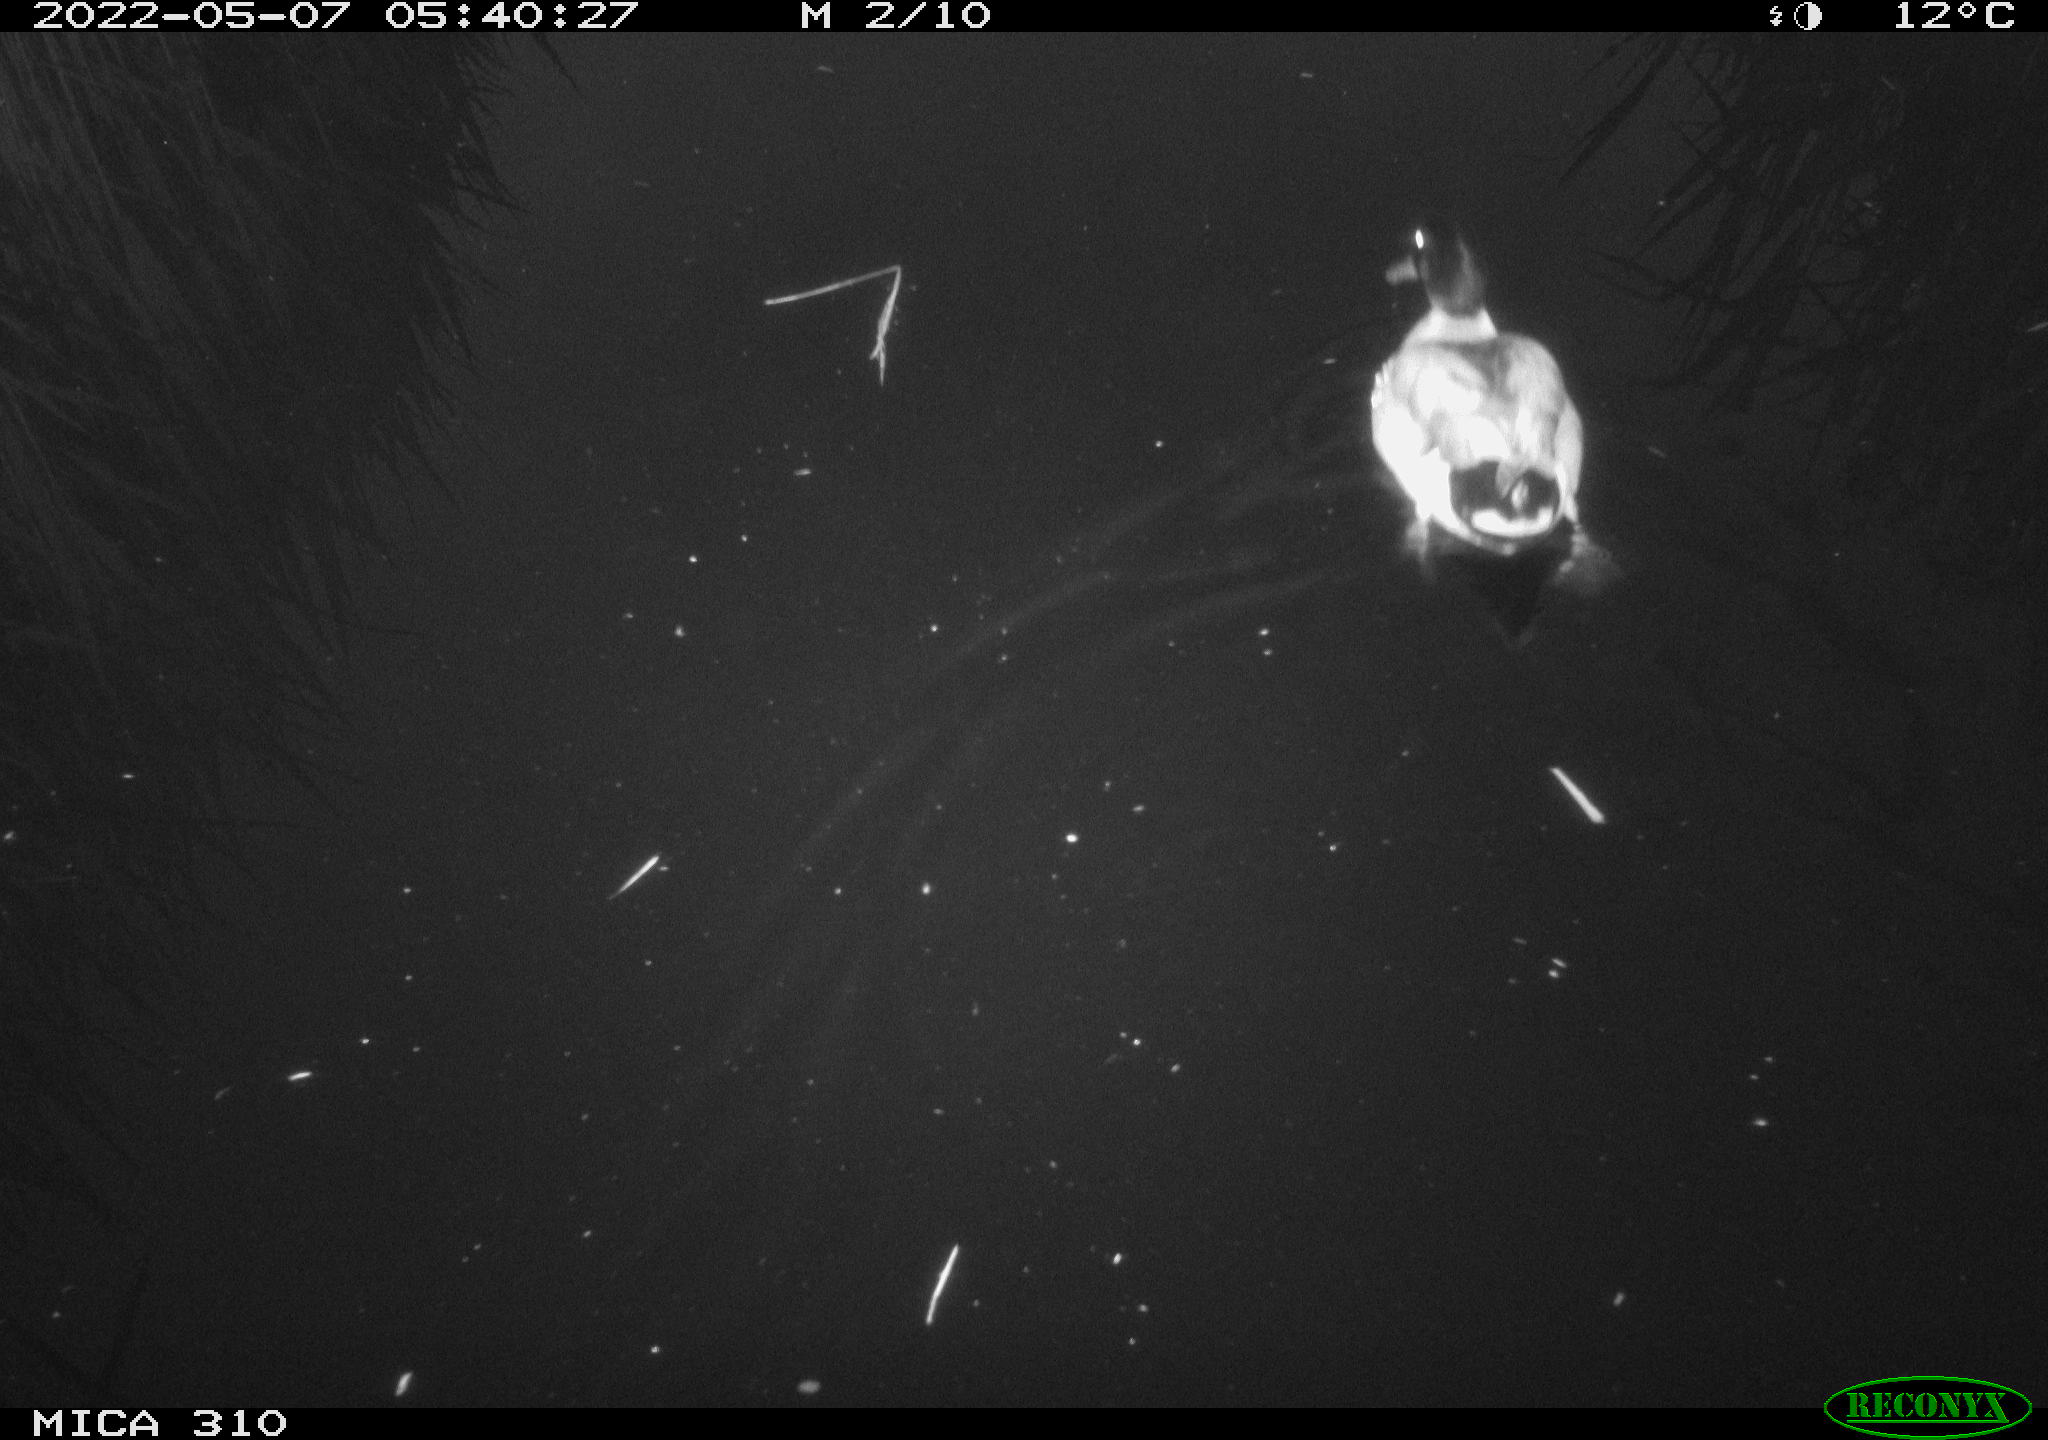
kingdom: Animalia
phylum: Chordata
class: Aves
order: Anseriformes
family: Anatidae
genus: Anas
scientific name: Anas platyrhynchos
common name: Mallard
